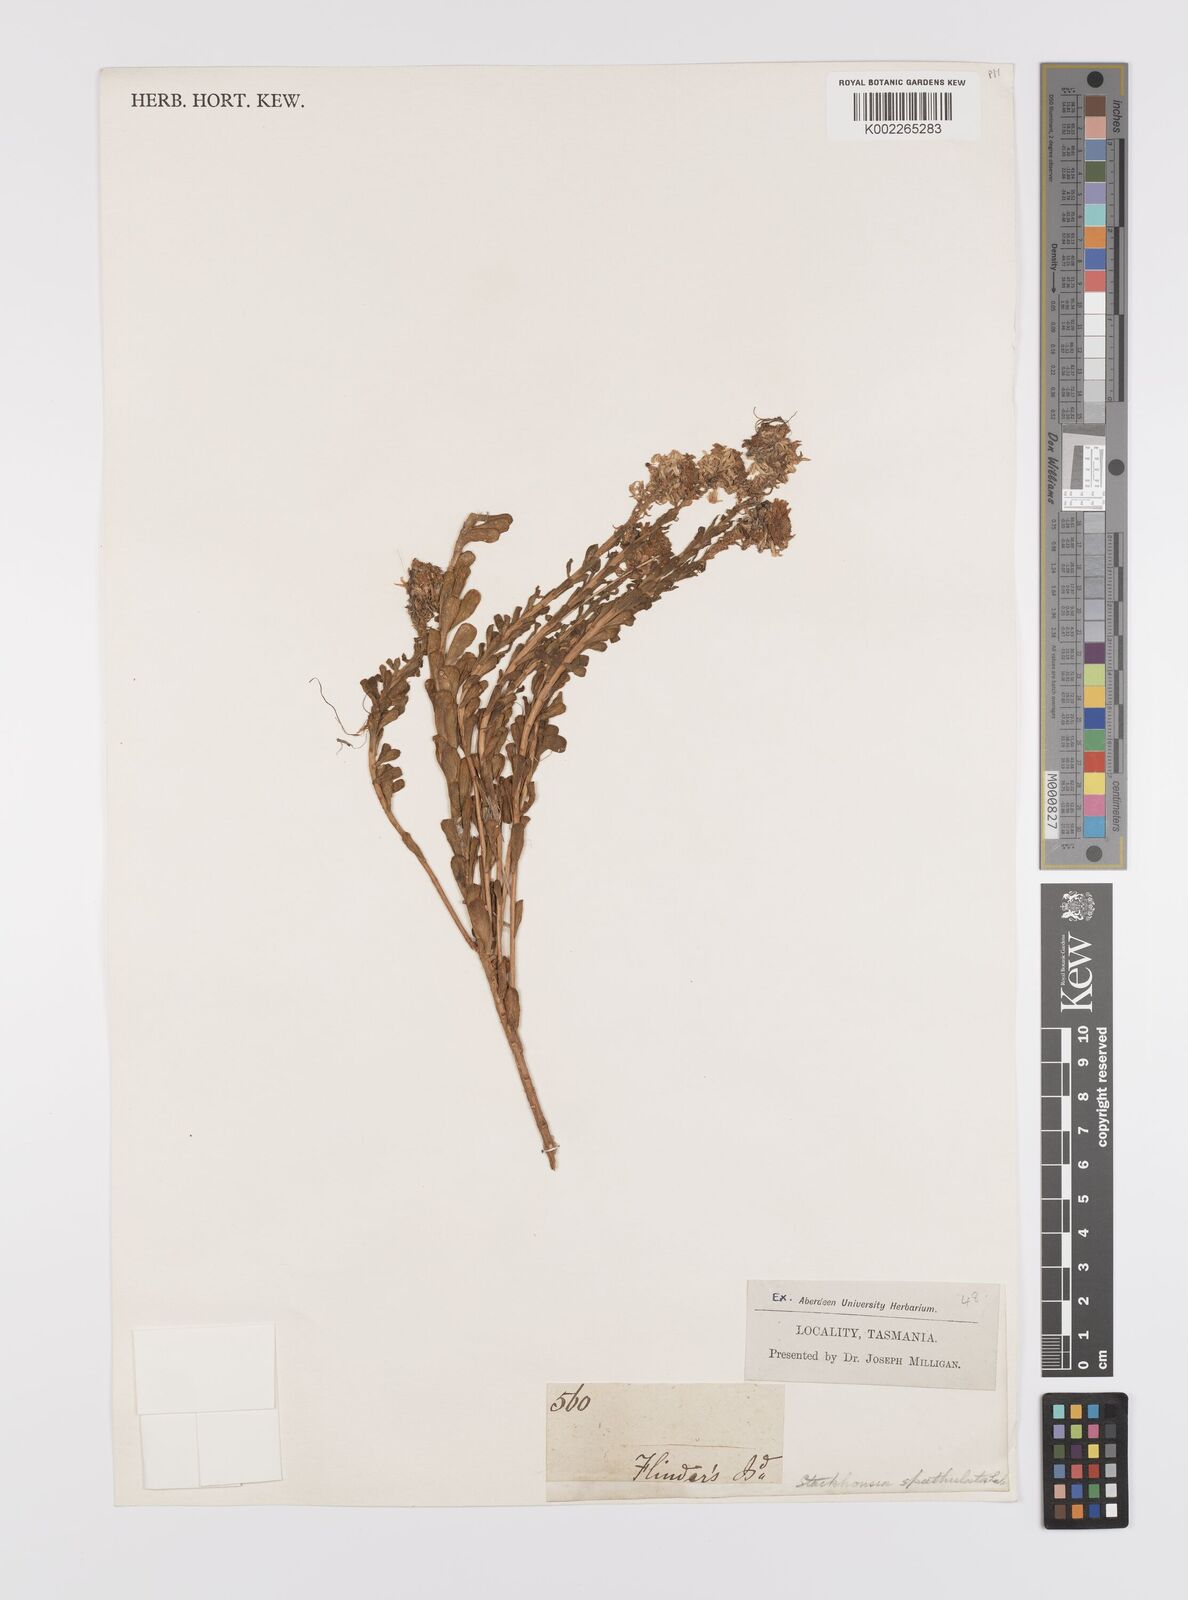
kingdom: Plantae
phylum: Tracheophyta
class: Magnoliopsida
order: Celastrales
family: Celastraceae
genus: Stackhousia
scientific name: Stackhousia spathulata
